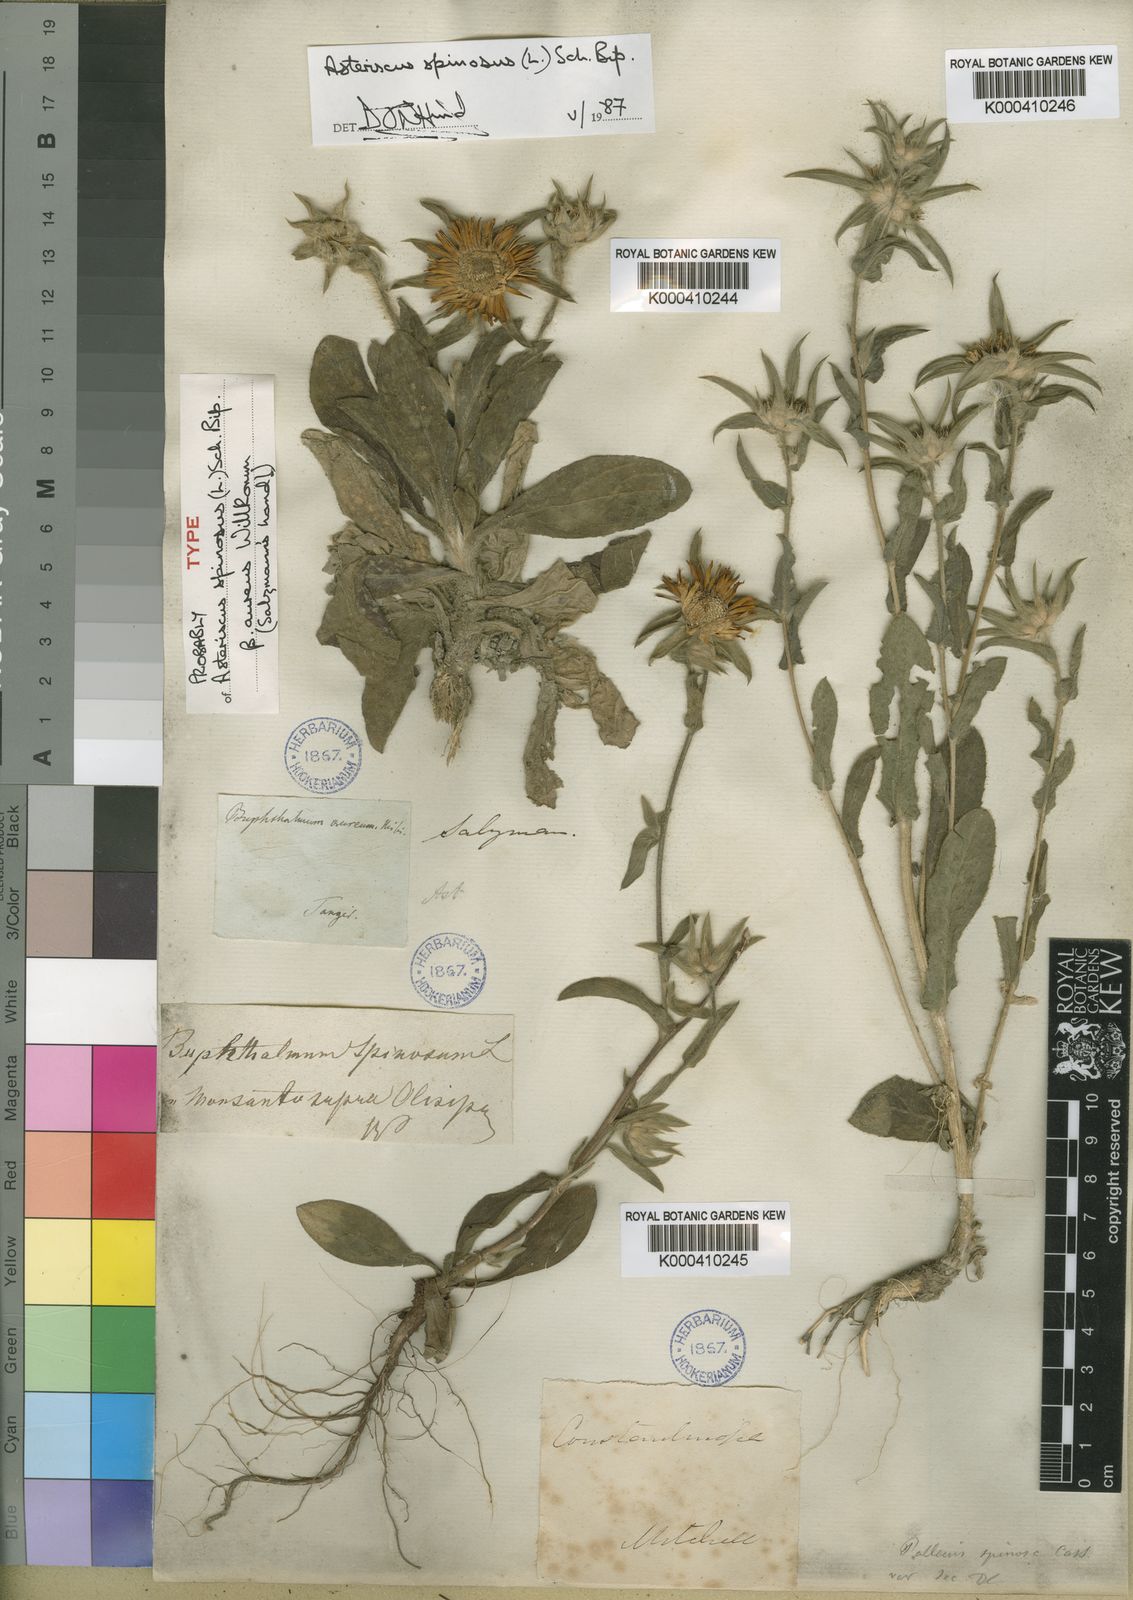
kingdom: Plantae
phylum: Tracheophyta
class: Magnoliopsida
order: Asterales
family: Asteraceae
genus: Pallenis
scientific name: Pallenis spinosa
